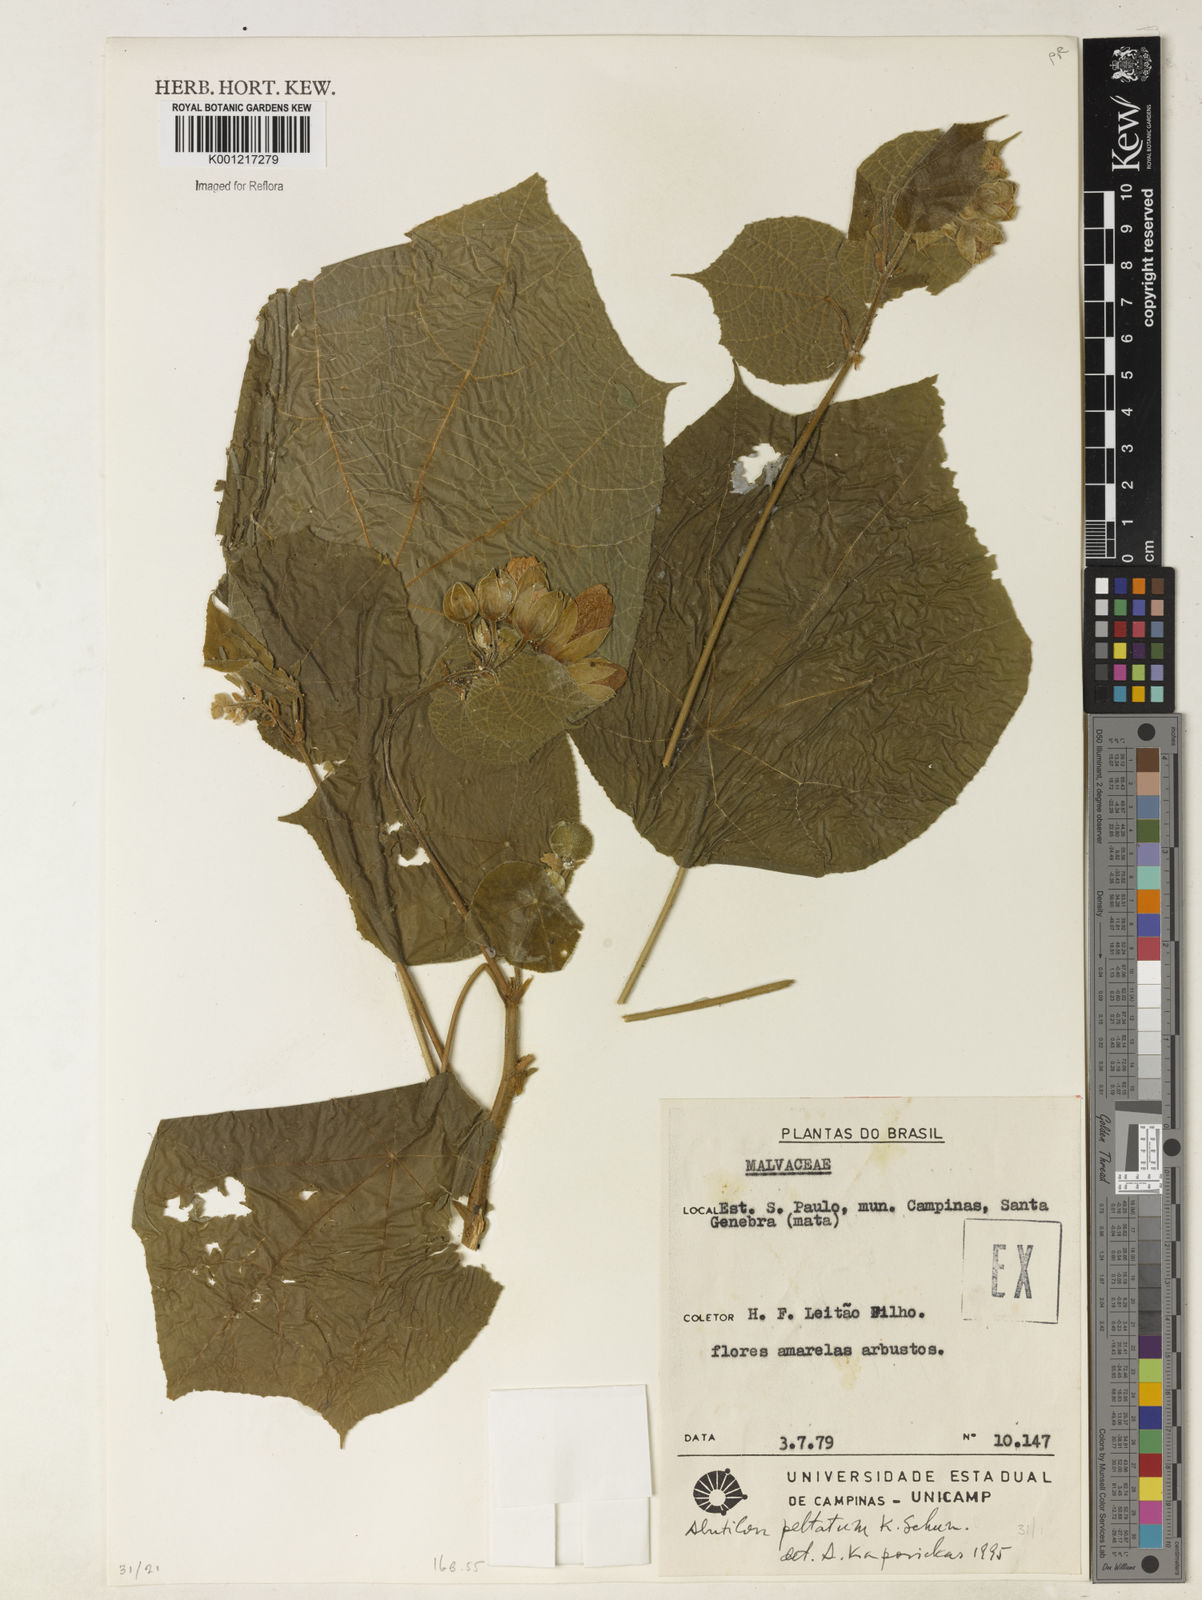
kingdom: Plantae
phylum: Tracheophyta
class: Magnoliopsida
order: Malvales
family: Malvaceae
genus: Callianthe
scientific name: Callianthe fluviatilis
